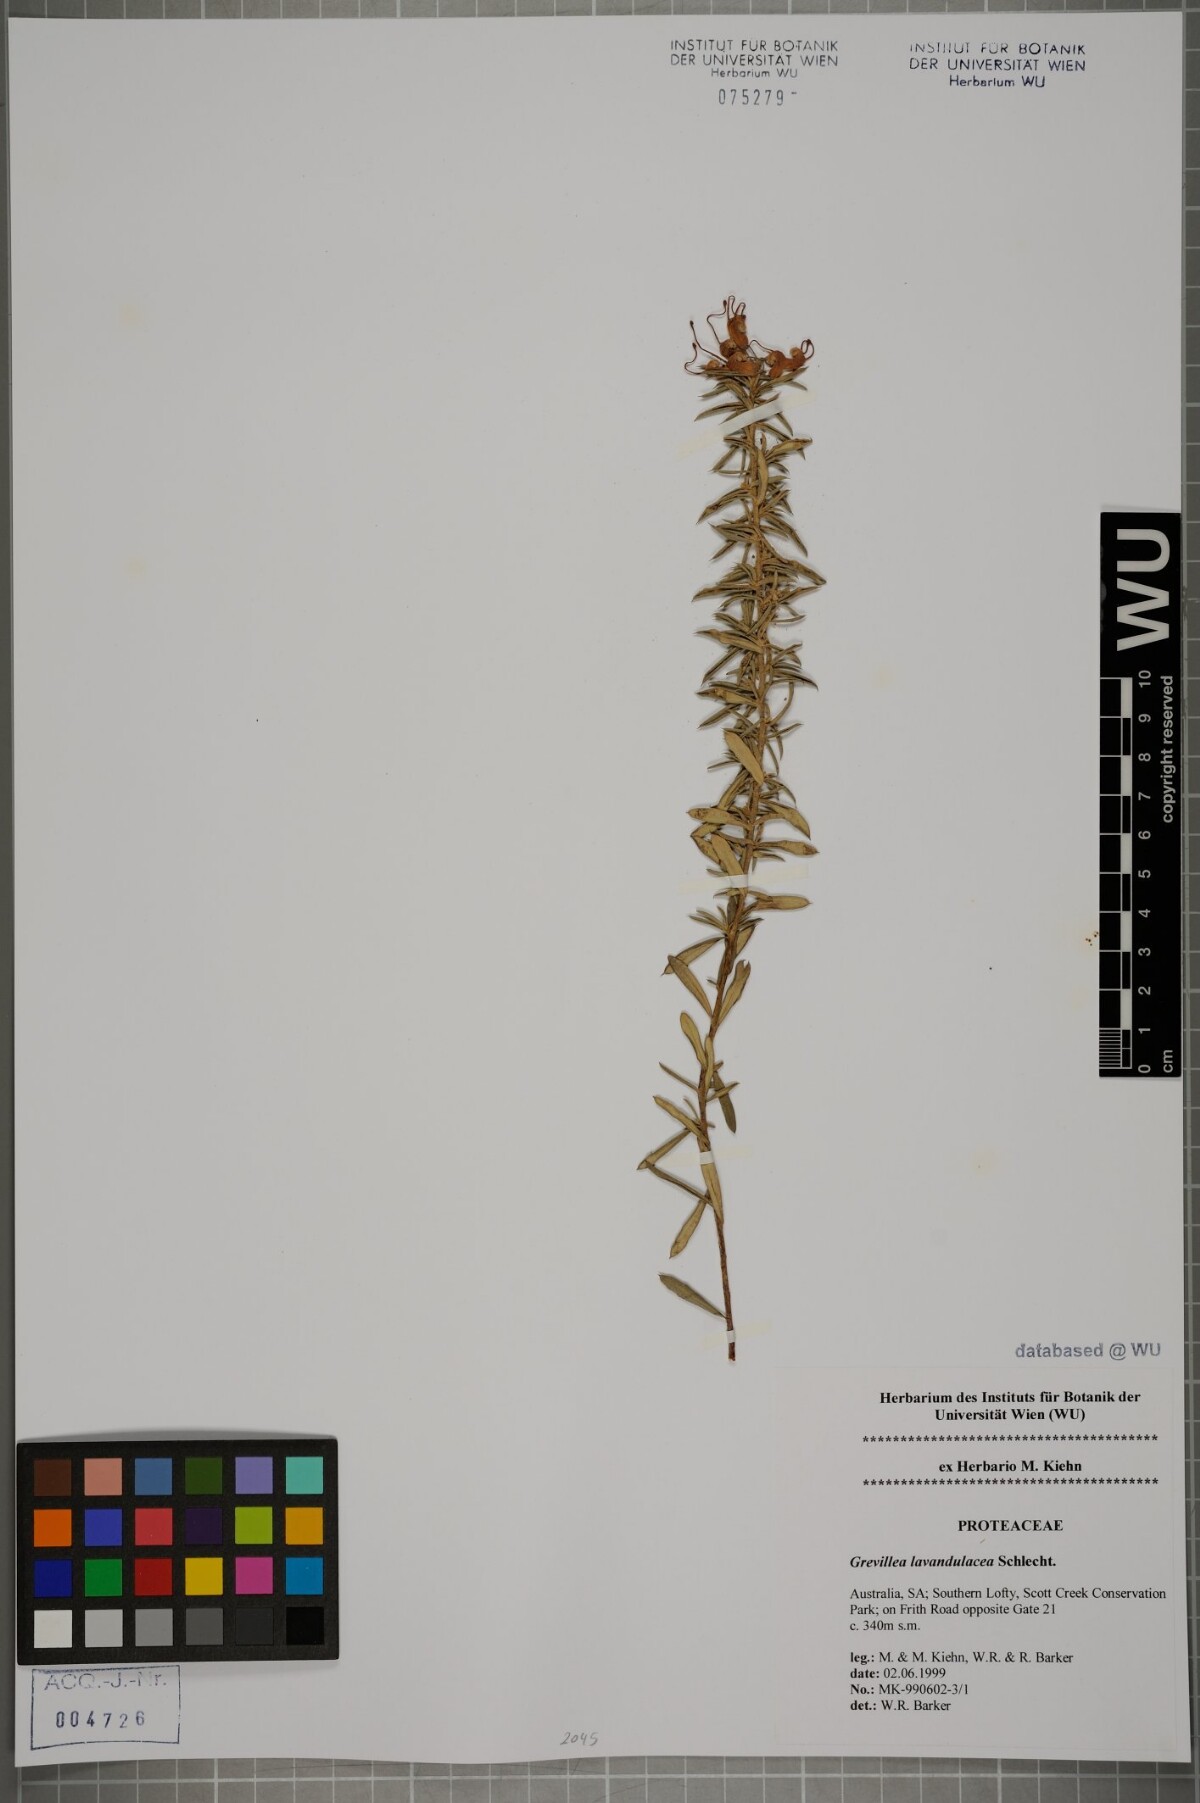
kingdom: Plantae
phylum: Tracheophyta
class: Magnoliopsida
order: Proteales
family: Proteaceae
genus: Grevillea
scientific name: Grevillea rosmarinifolia
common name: Rosemary grevillea
